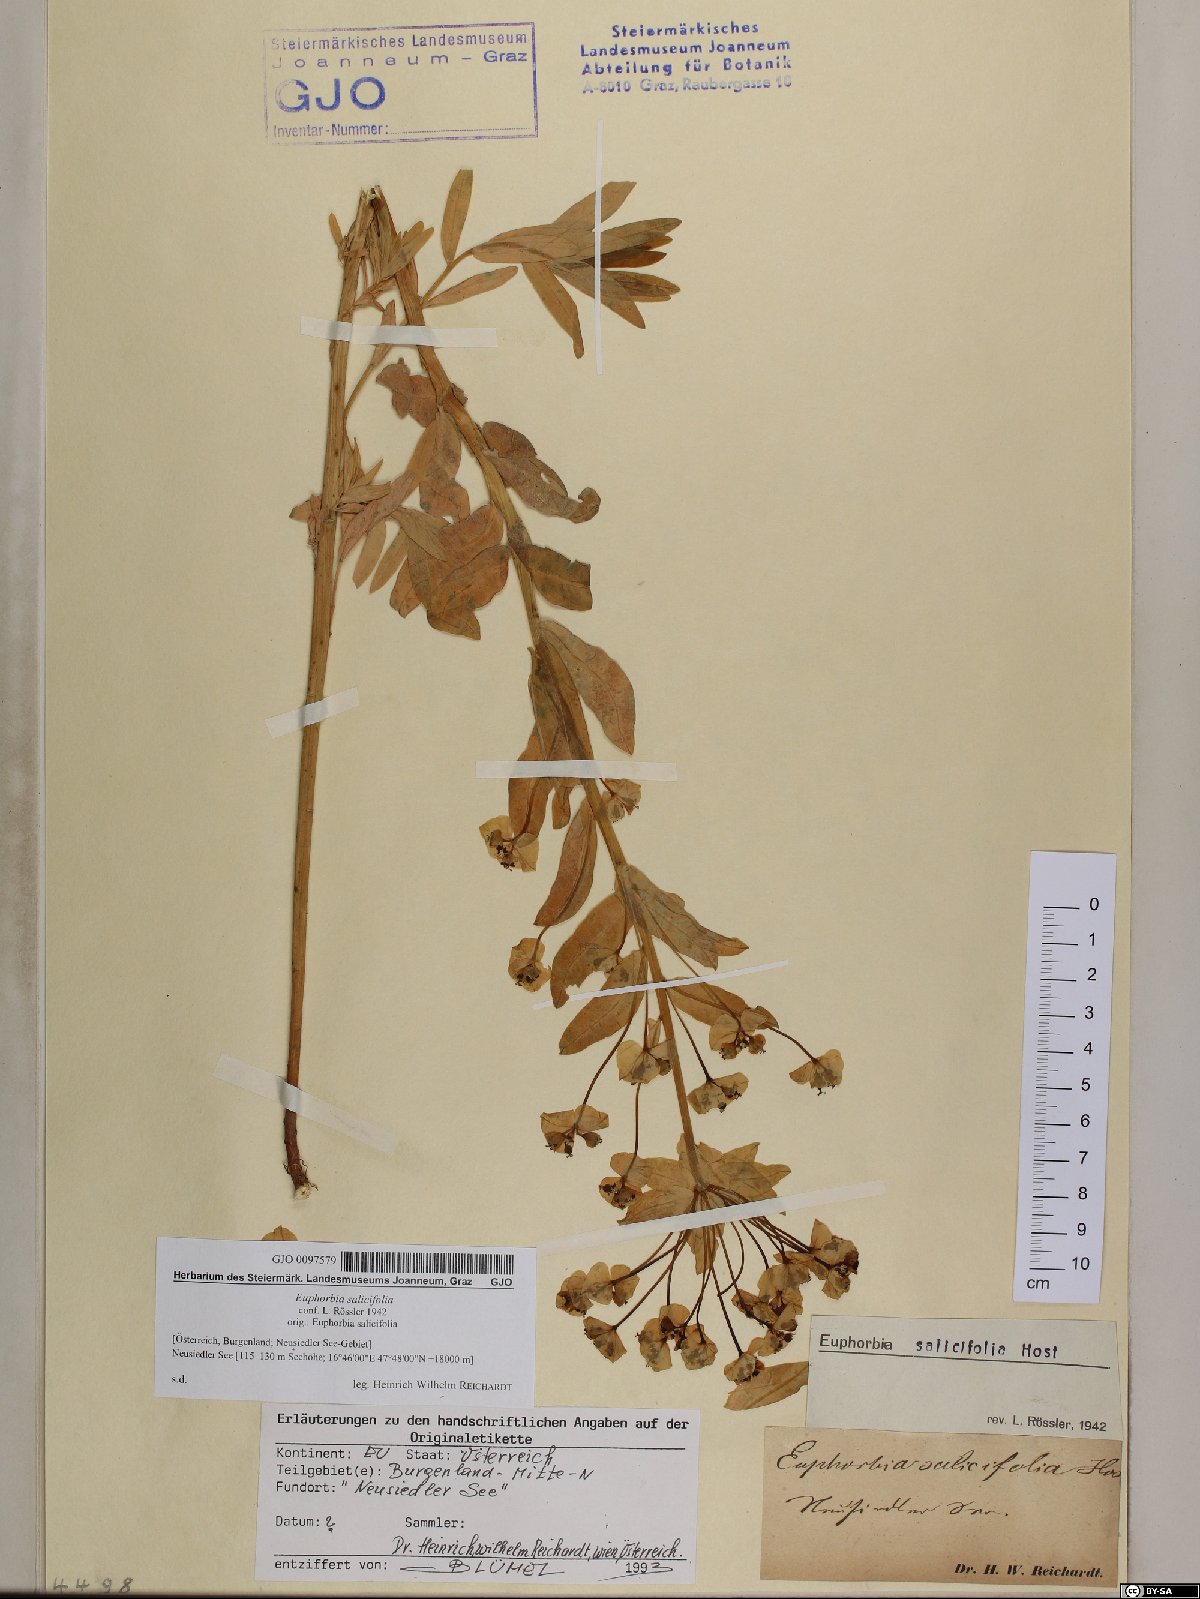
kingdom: Plantae
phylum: Tracheophyta
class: Magnoliopsida
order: Malpighiales
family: Euphorbiaceae
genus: Euphorbia
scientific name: Euphorbia salicifolia
